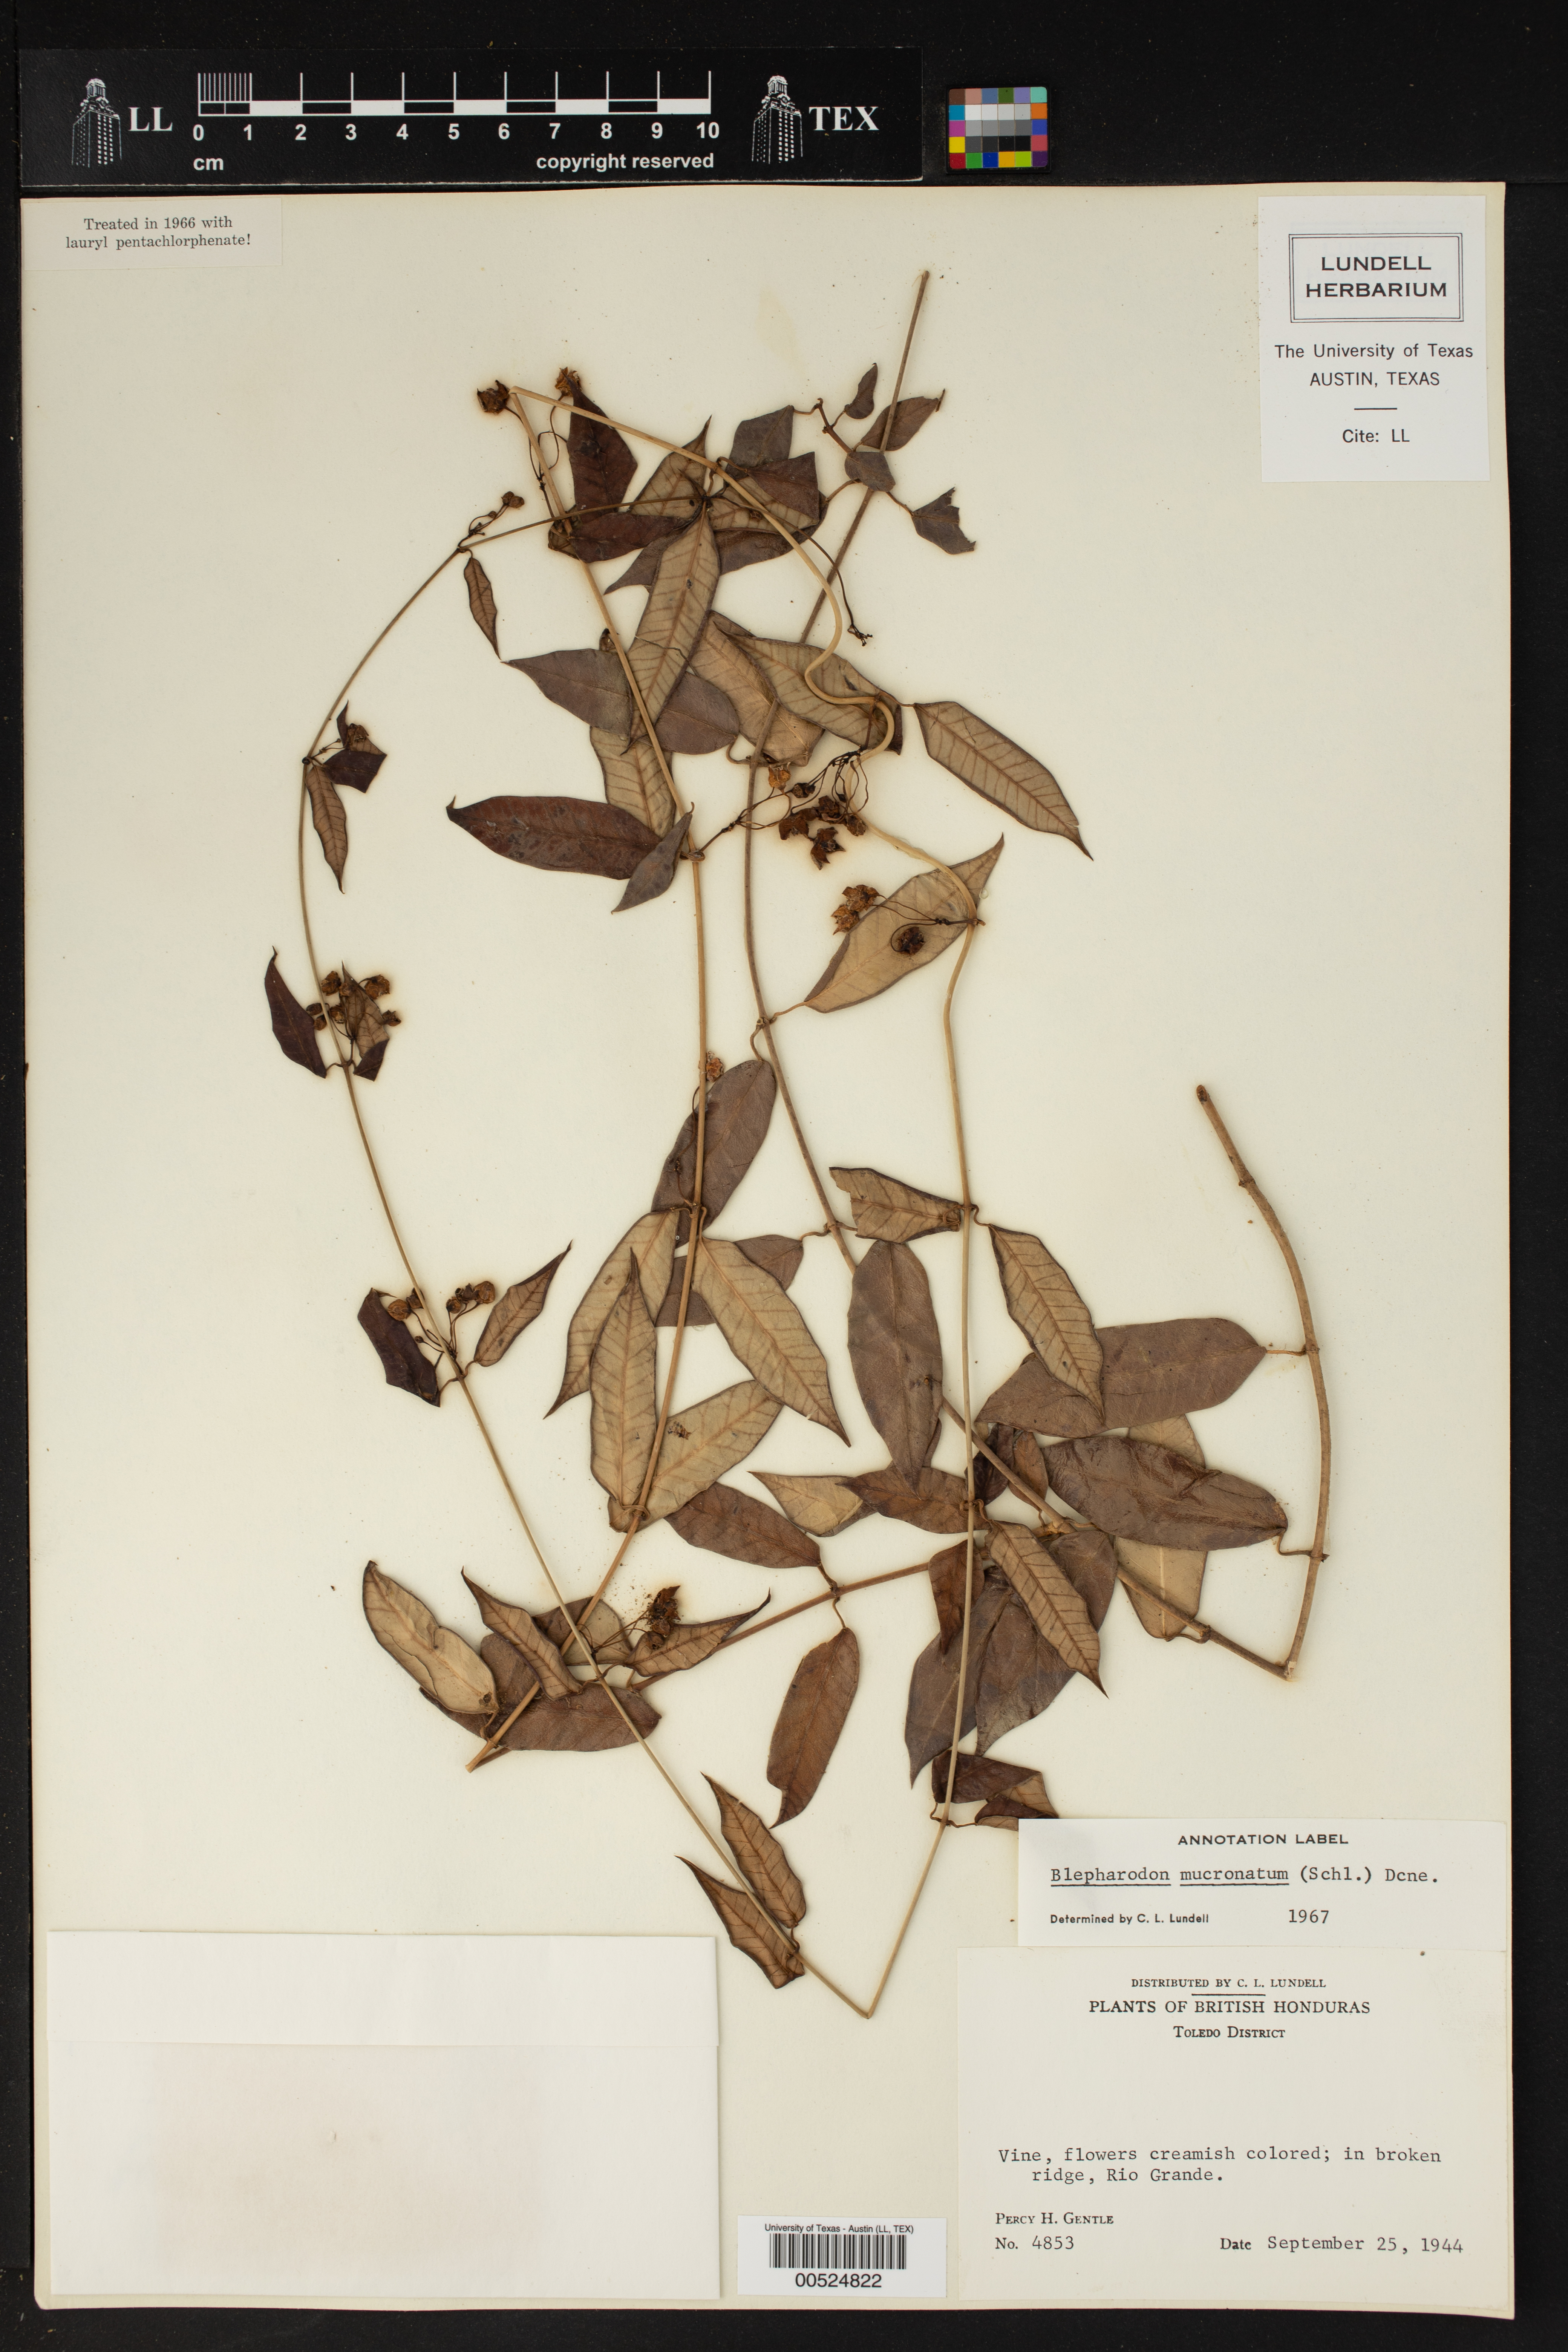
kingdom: Plantae
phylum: Tracheophyta
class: Magnoliopsida
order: Gentianales
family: Apocynaceae
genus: Vailia
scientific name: Vailia anomala
